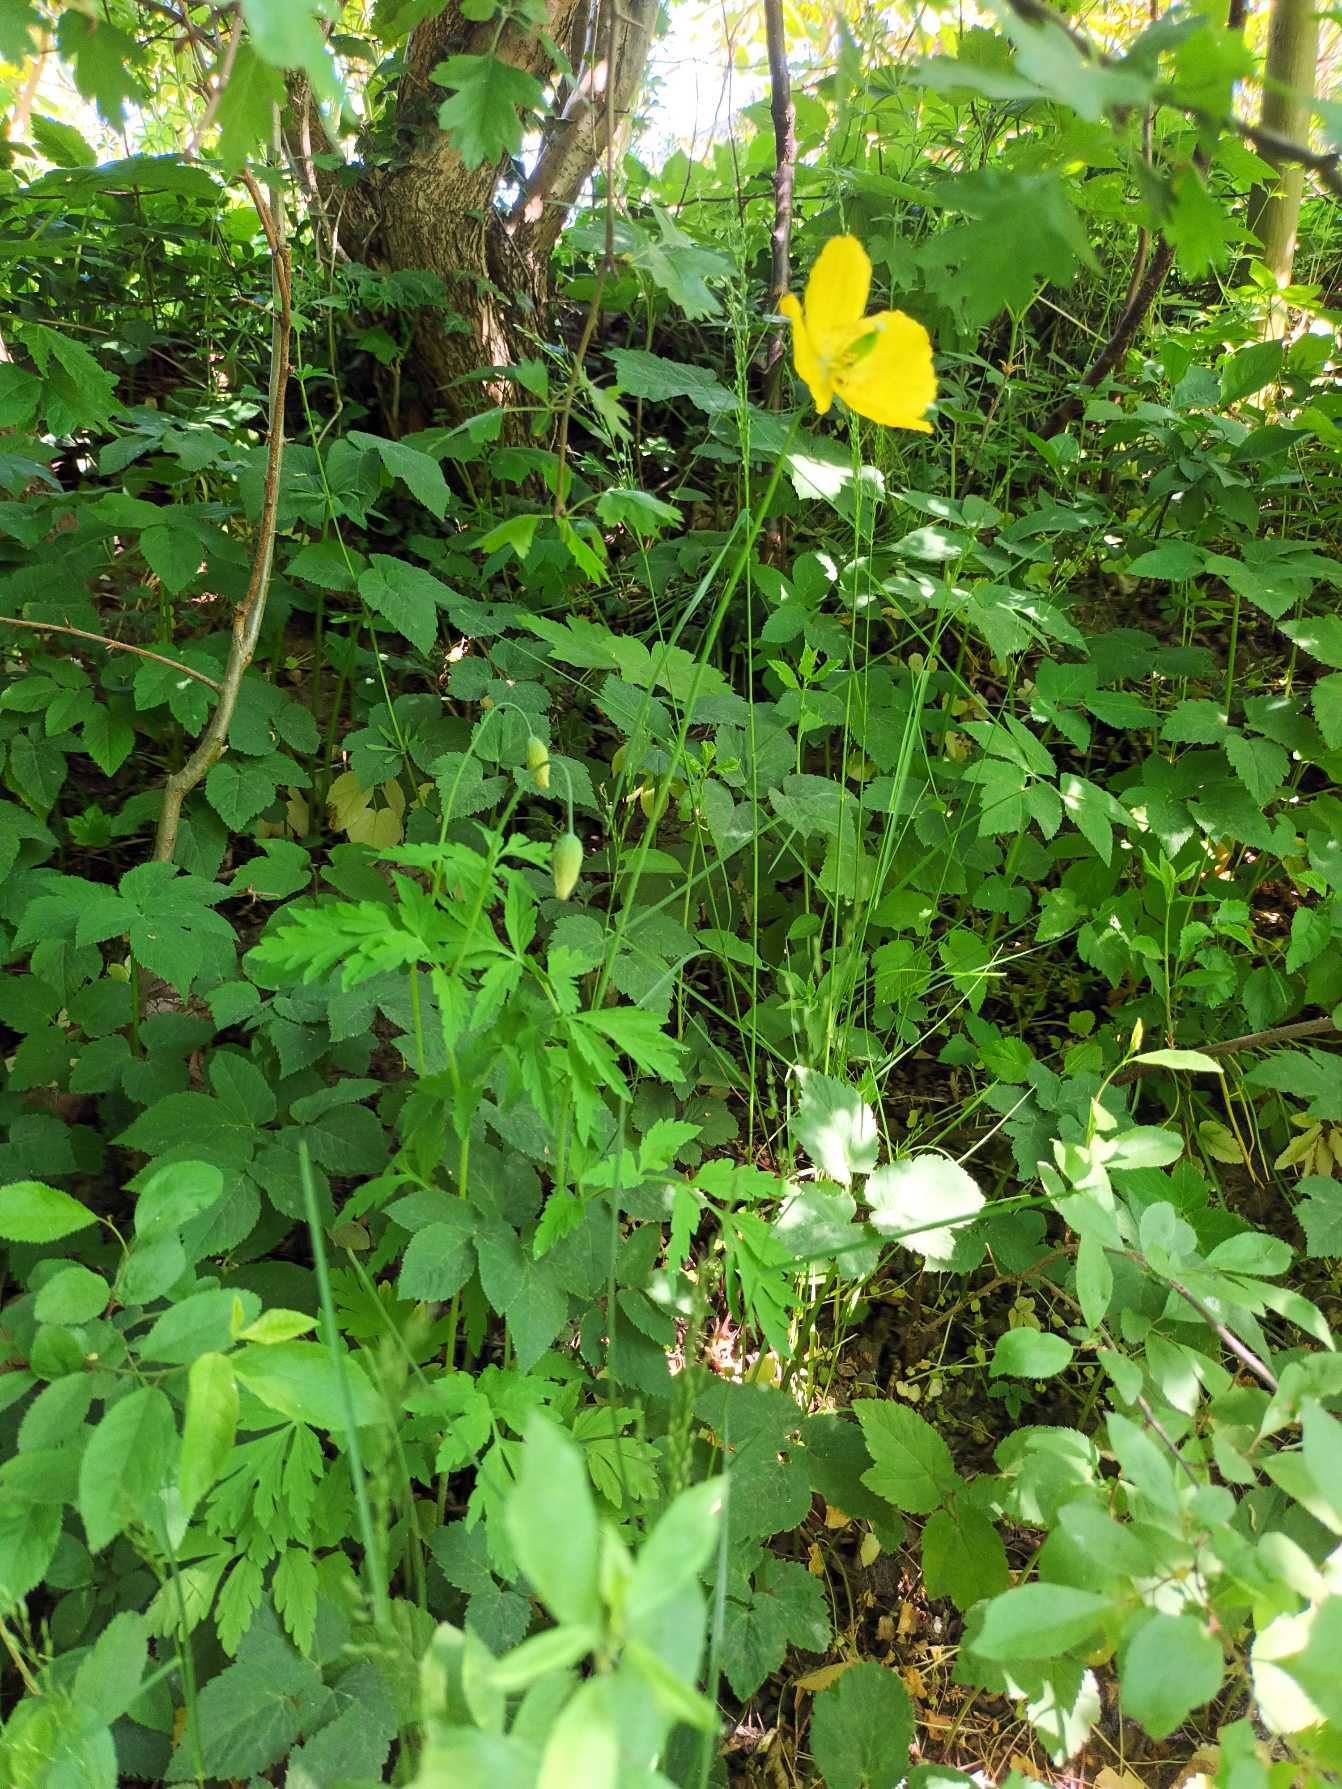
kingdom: Plantae
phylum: Tracheophyta
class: Magnoliopsida
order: Ranunculales
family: Papaveraceae
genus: Papaver
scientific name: Papaver cambricum
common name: Skov-valmue
